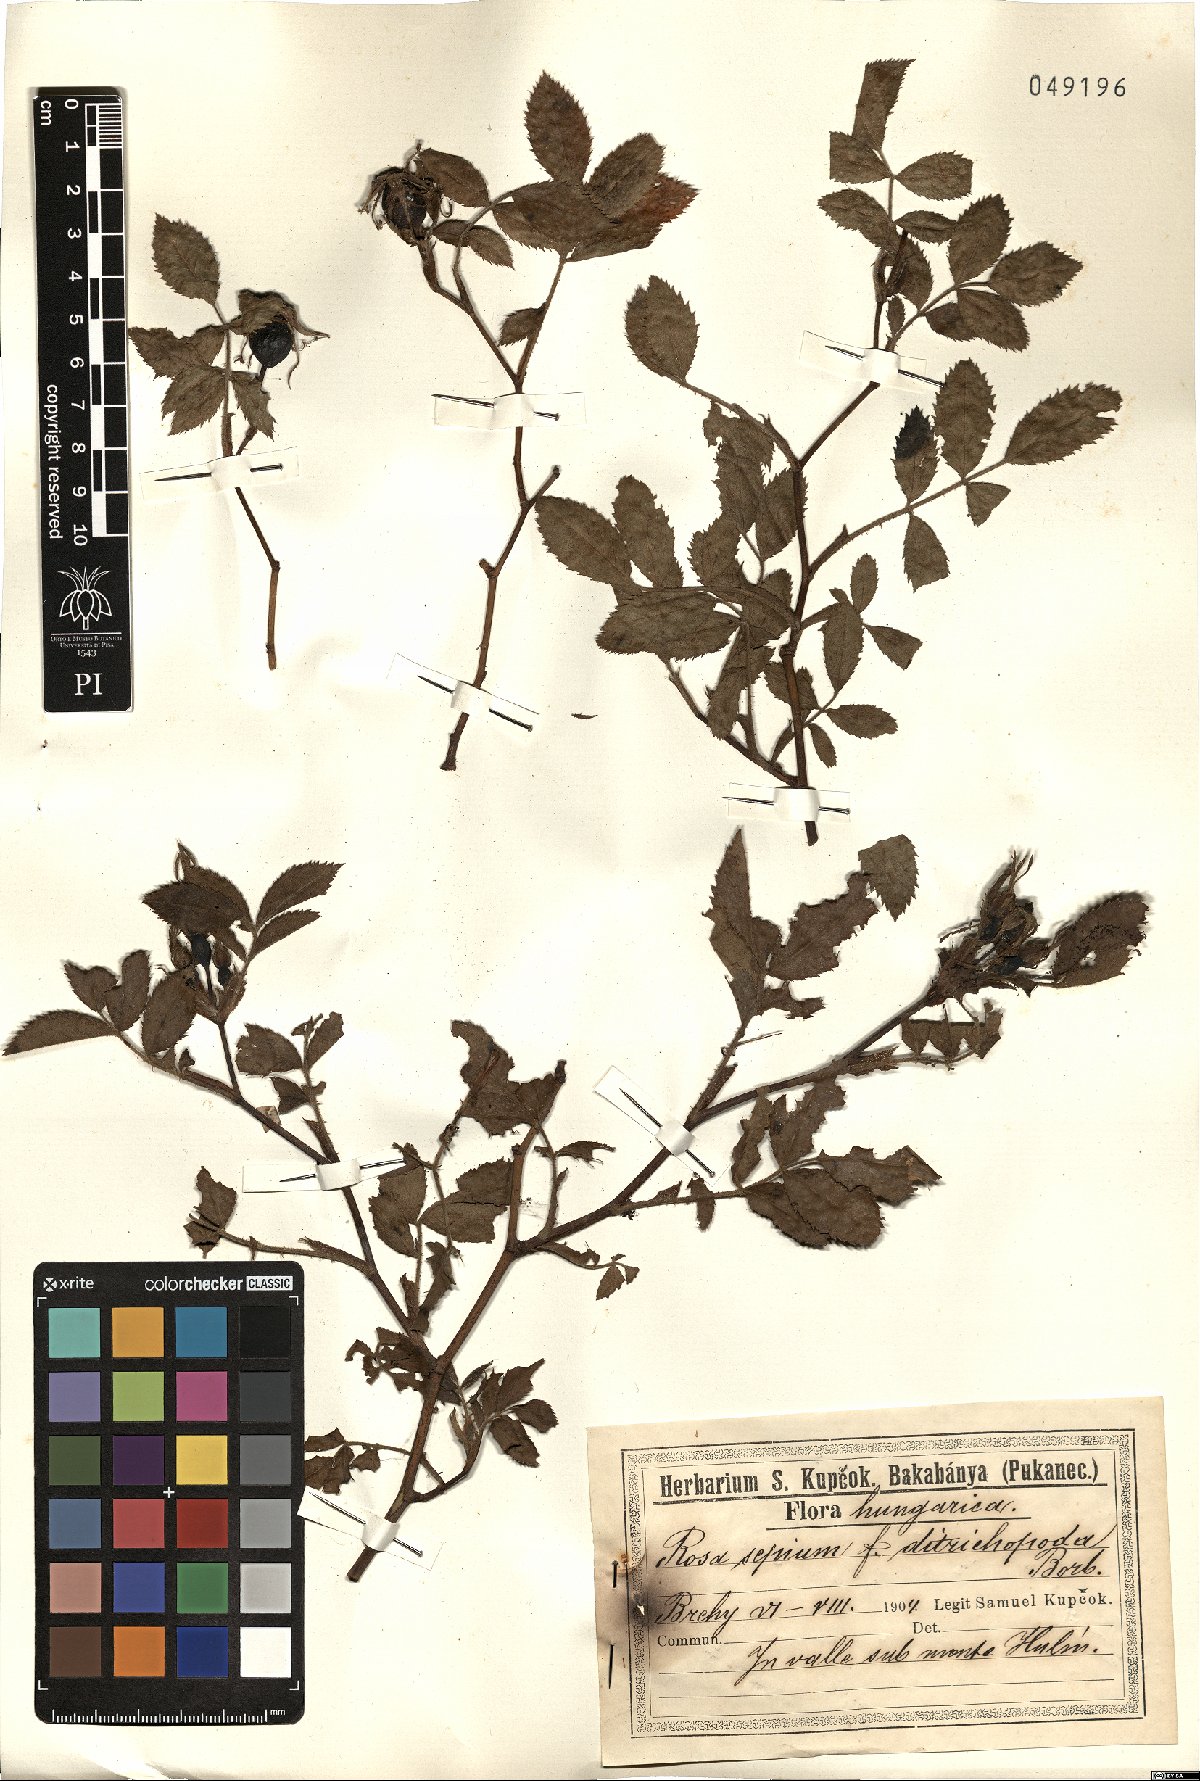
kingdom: Plantae
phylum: Tracheophyta
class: Magnoliopsida
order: Rosales
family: Rosaceae
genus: Rosa
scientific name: Rosa
